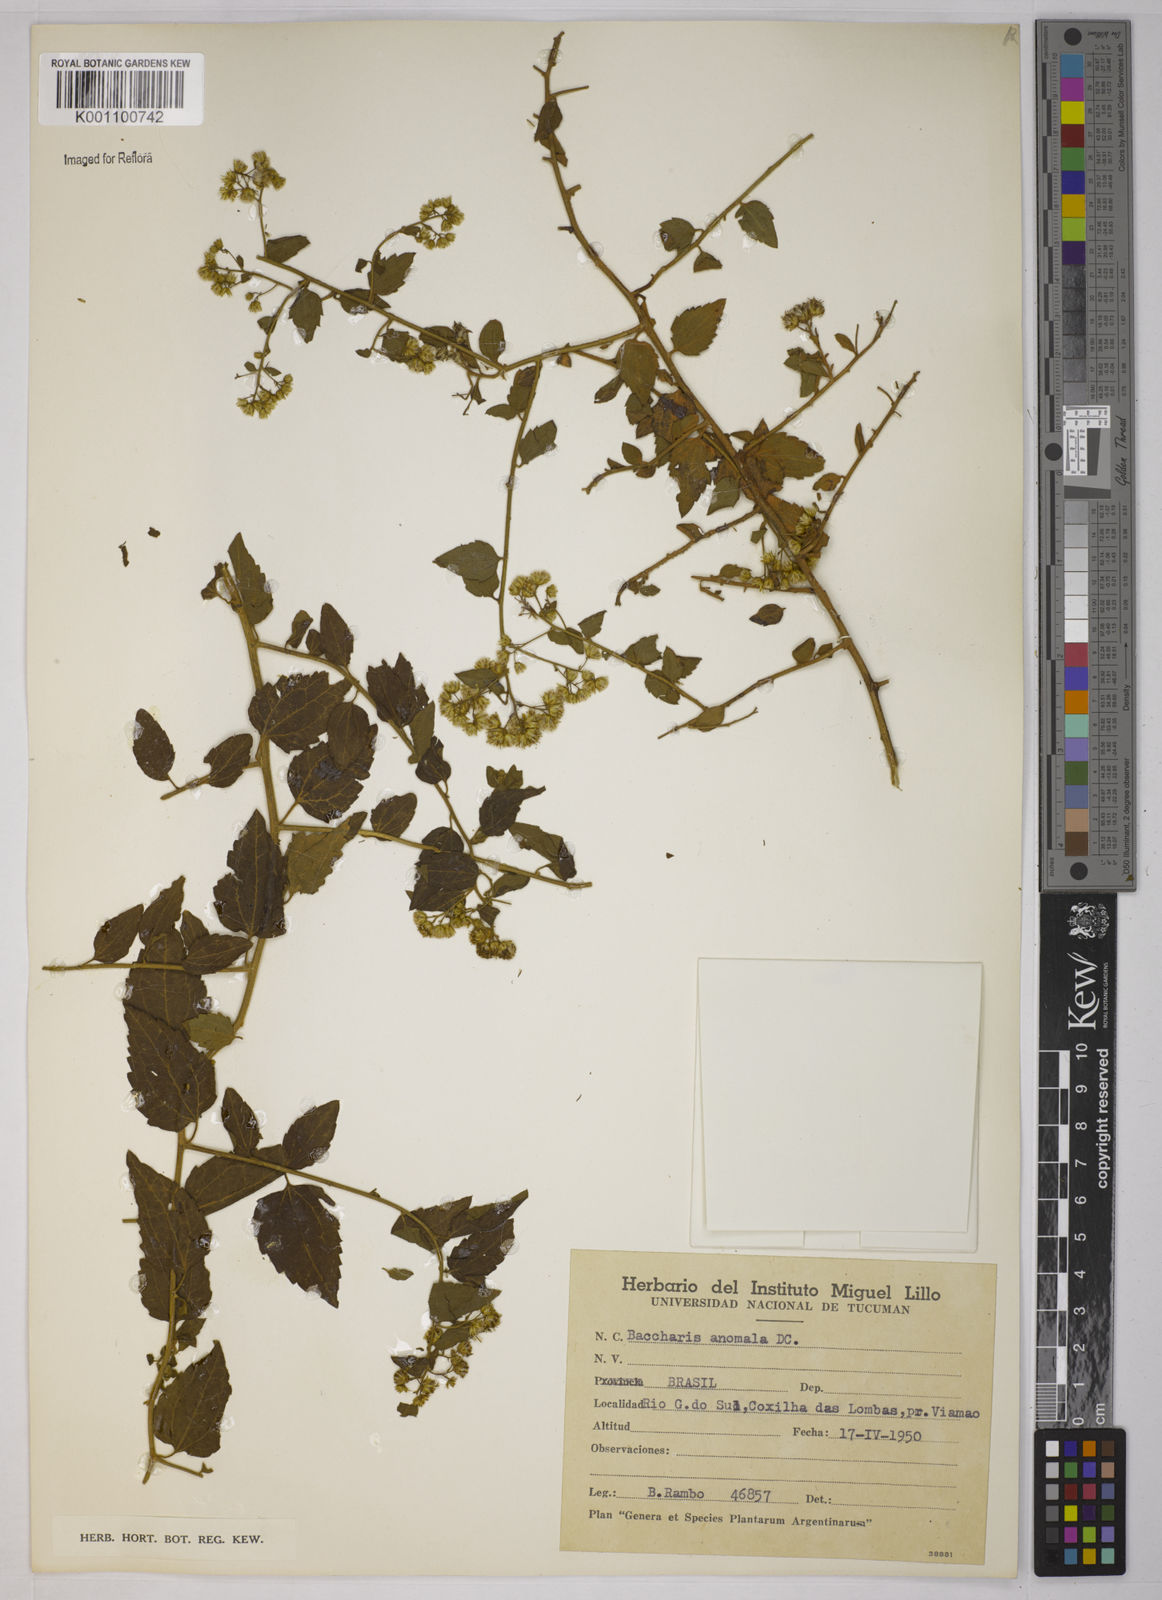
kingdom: Plantae
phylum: Tracheophyta
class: Magnoliopsida
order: Asterales
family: Asteraceae
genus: Baccharis
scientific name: Baccharis anomala
